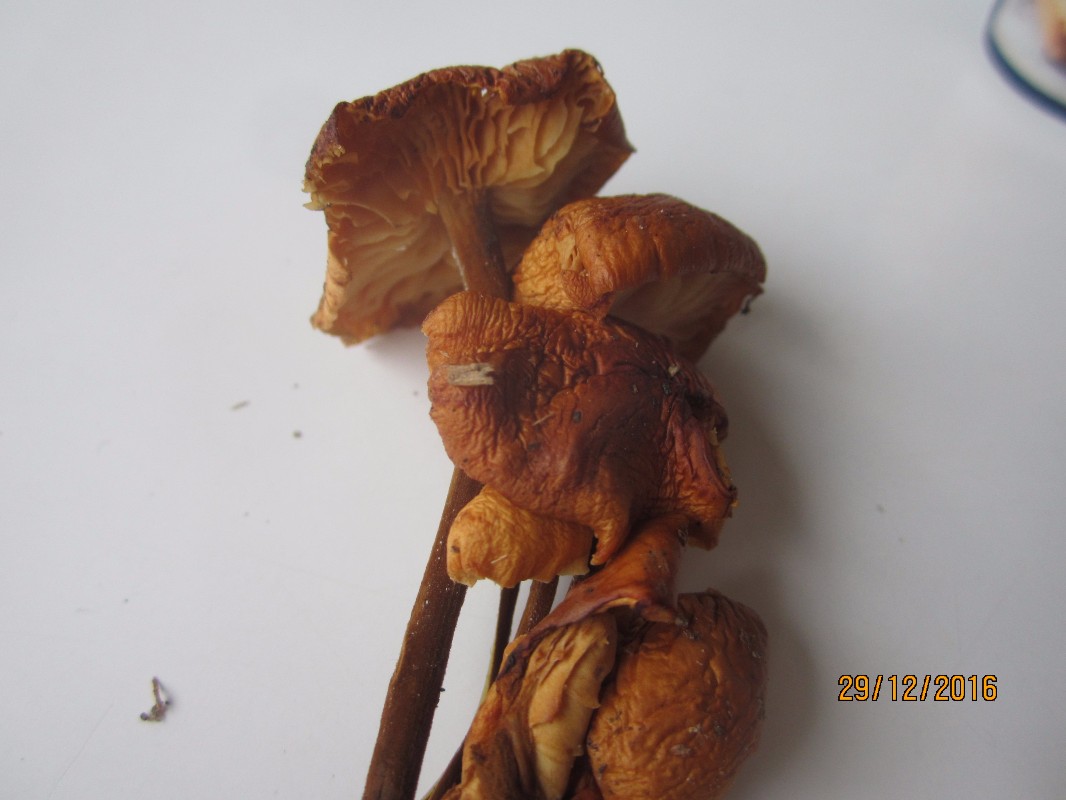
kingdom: Fungi
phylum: Basidiomycota
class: Agaricomycetes
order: Agaricales
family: Physalacriaceae
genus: Flammulina
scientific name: Flammulina velutipes
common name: gul fløjlsfod
